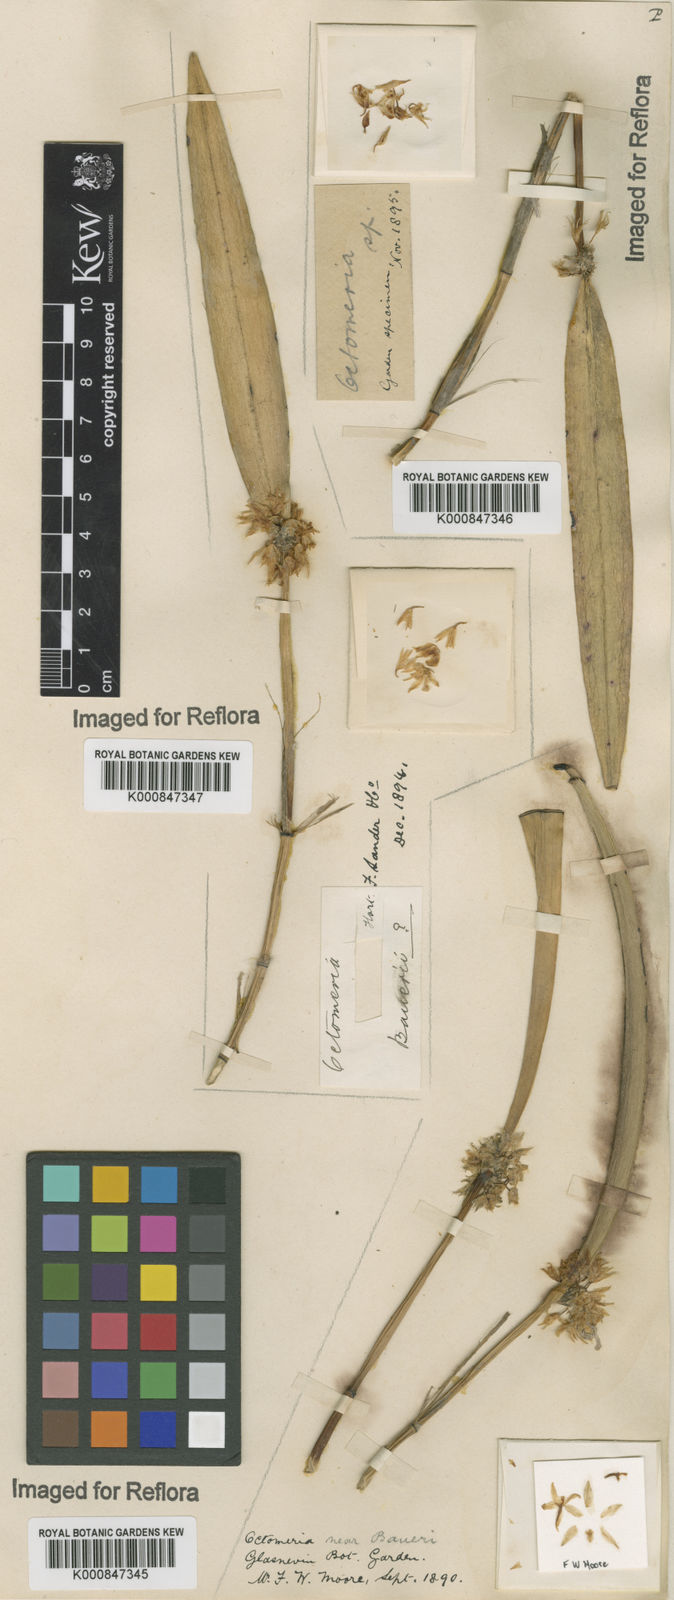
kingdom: Plantae
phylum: Tracheophyta
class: Liliopsida
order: Asparagales
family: Orchidaceae
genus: Octomeria
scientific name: Octomeria crassifolia
